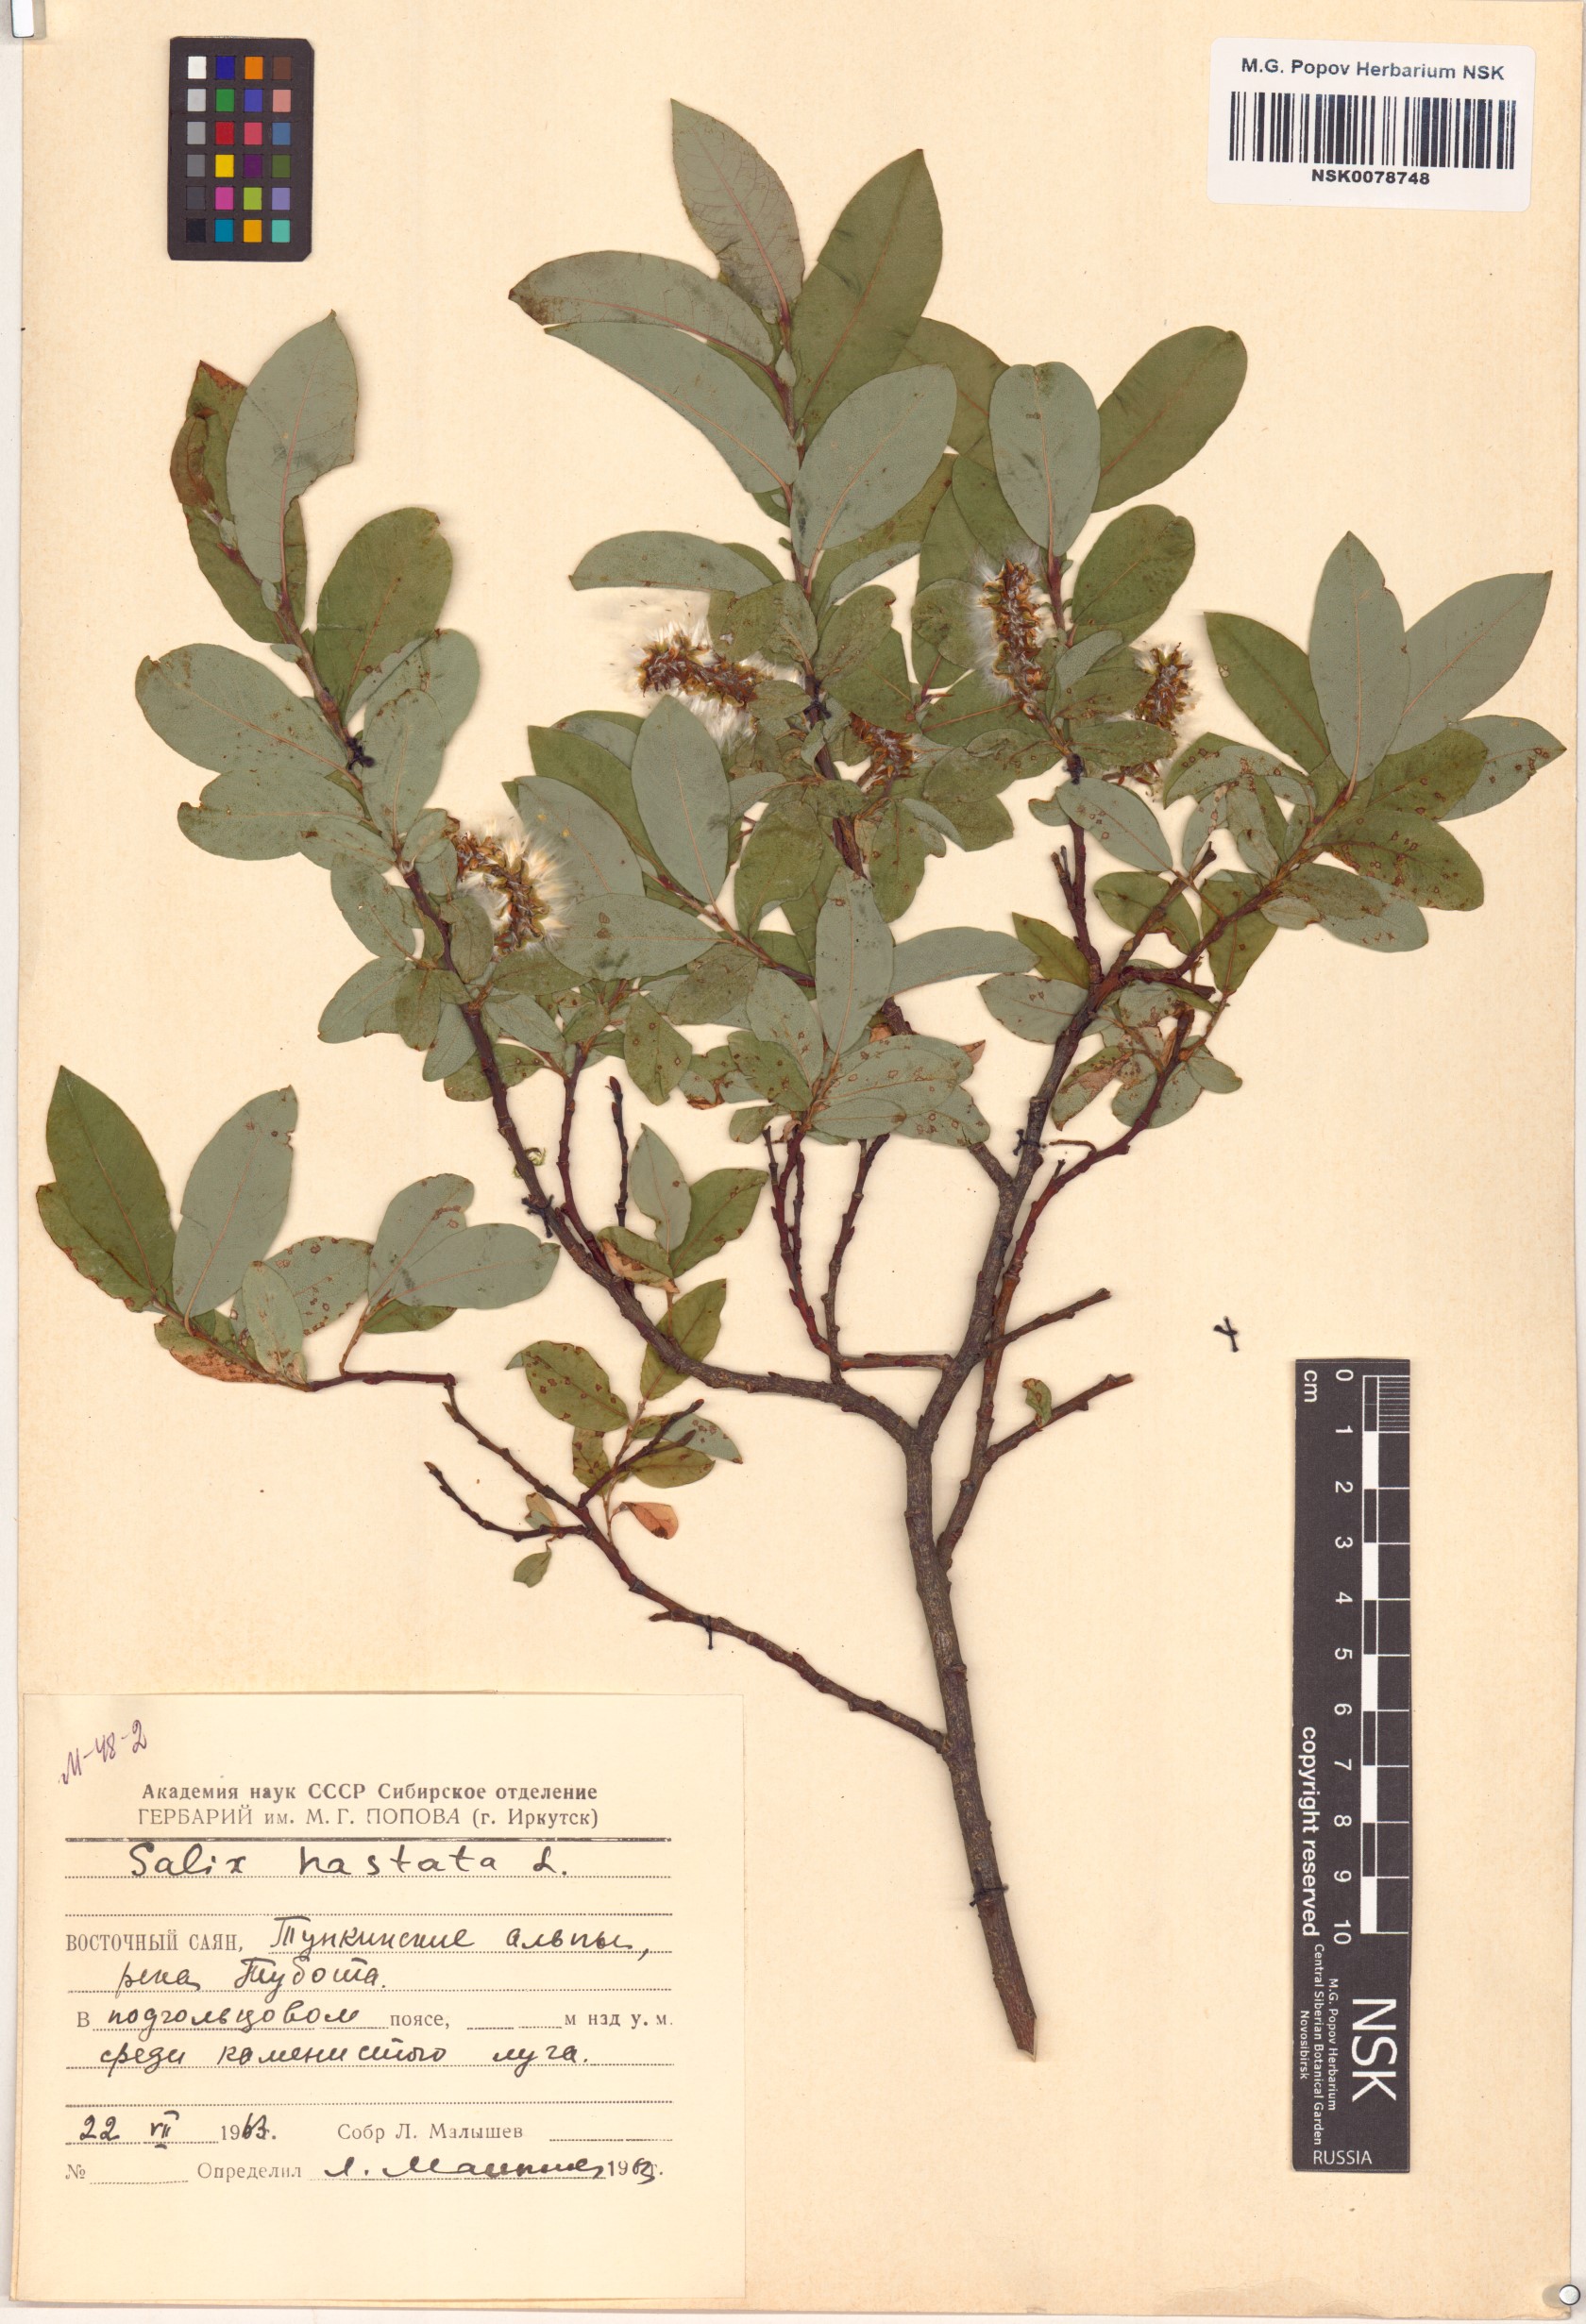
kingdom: Plantae
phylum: Tracheophyta
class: Magnoliopsida
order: Malpighiales
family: Salicaceae
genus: Salix
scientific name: Salix hastata
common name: Halberd willow
